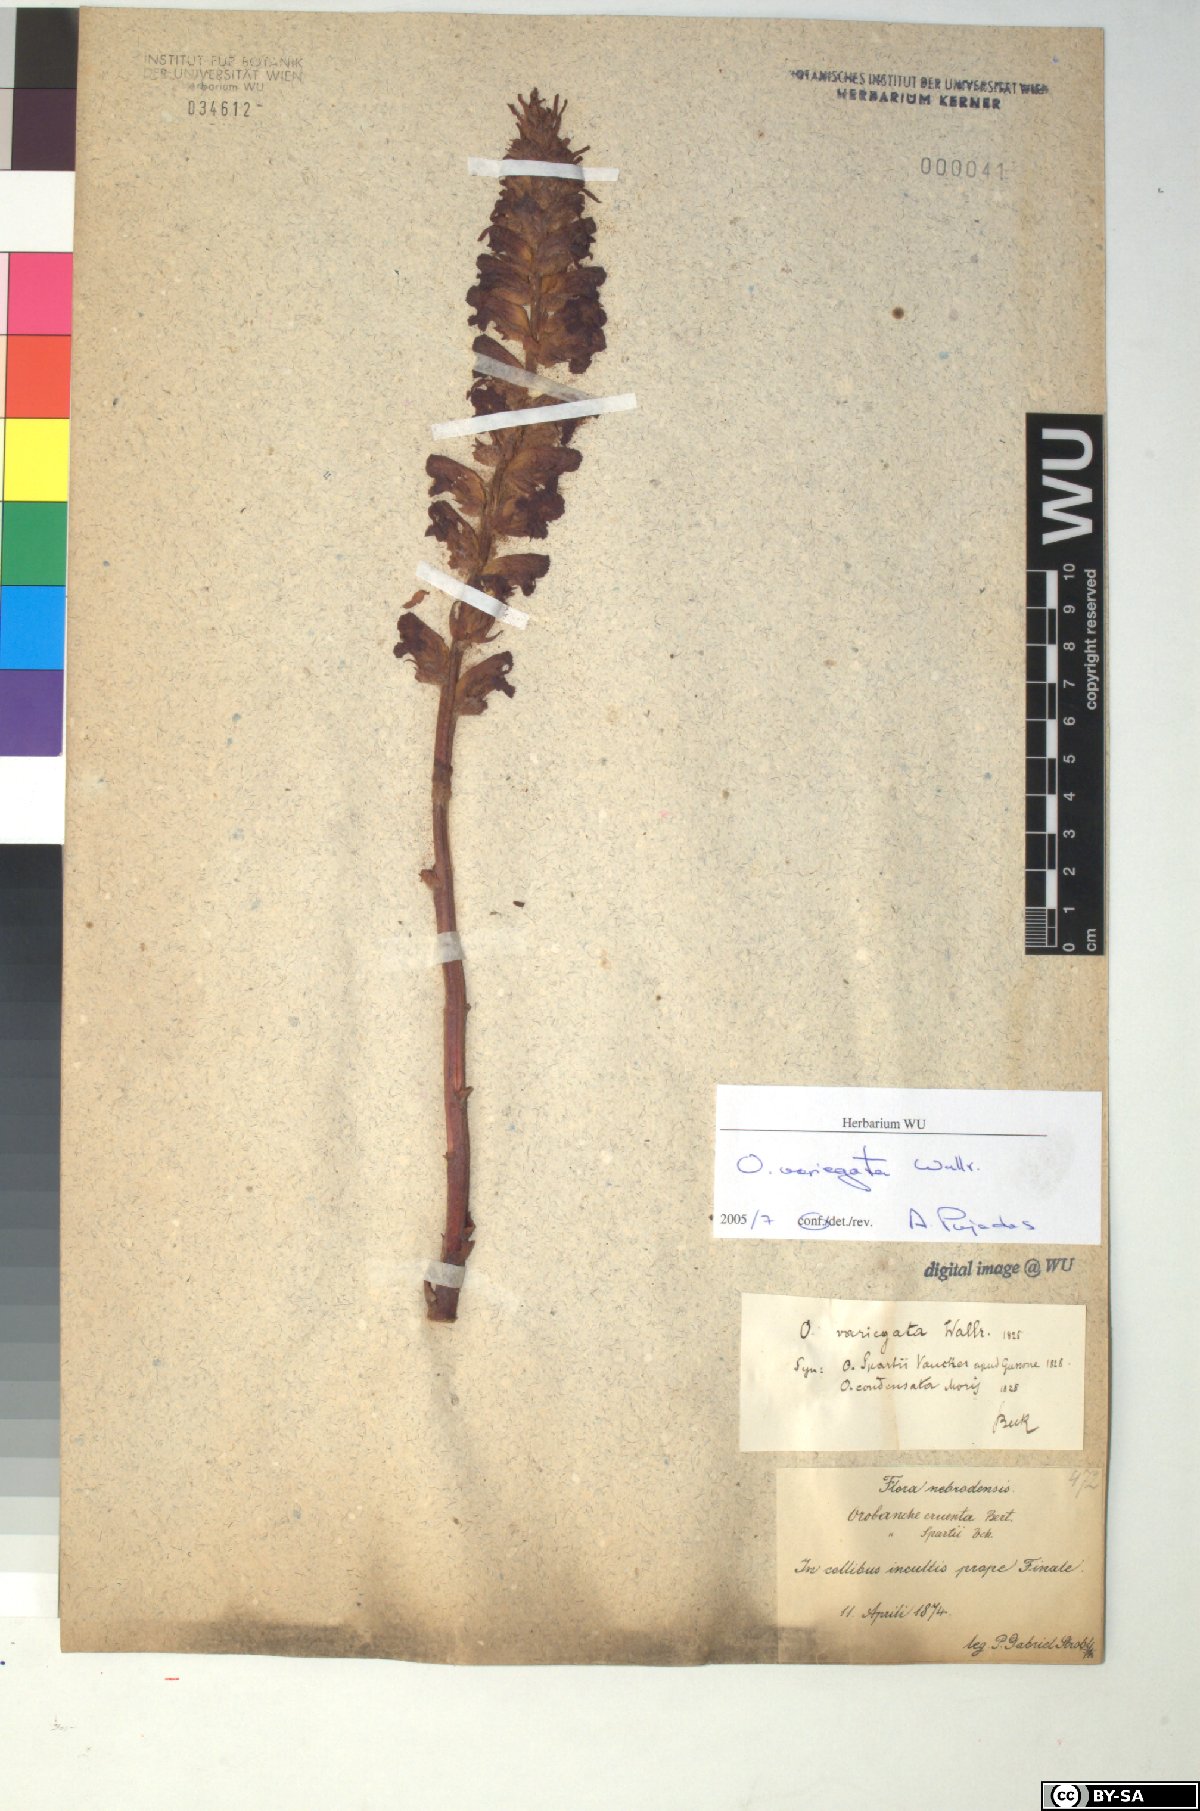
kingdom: Plantae
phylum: Tracheophyta
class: Magnoliopsida
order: Lamiales
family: Orobanchaceae
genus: Orobanche
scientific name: Orobanche variegata
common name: Variegated broomrape
